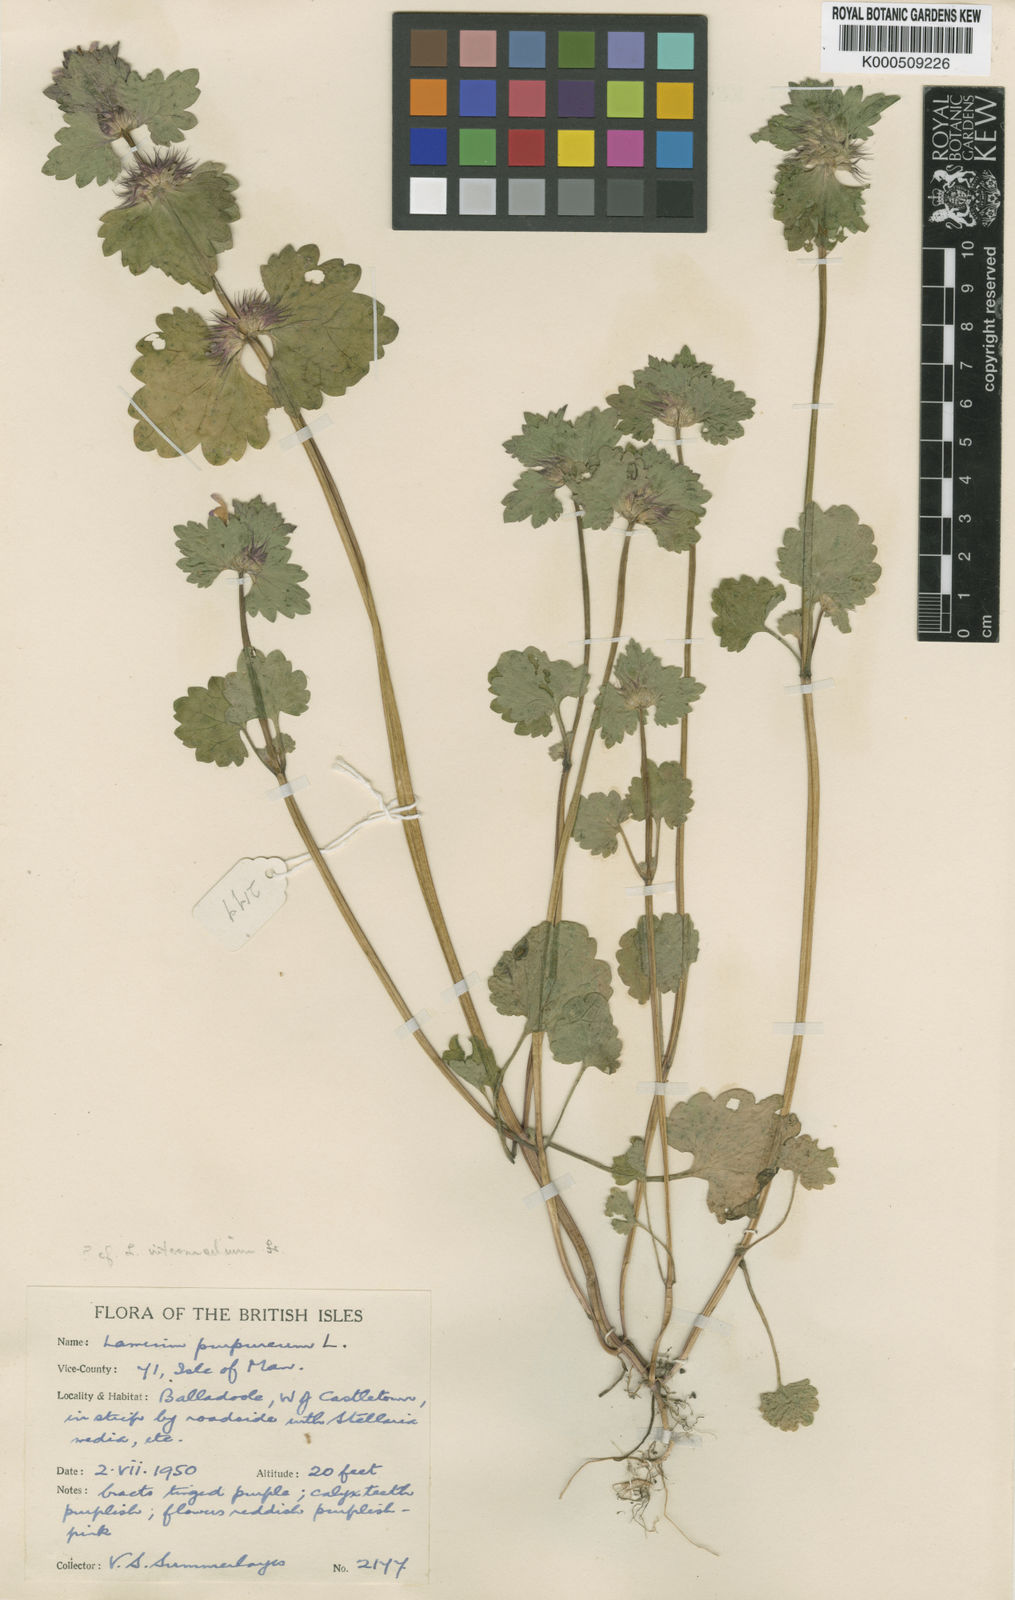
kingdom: Plantae
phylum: Tracheophyta
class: Magnoliopsida
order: Lamiales
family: Lamiaceae
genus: Lamium
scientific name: Lamium purpureum
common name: Red dead-nettle
